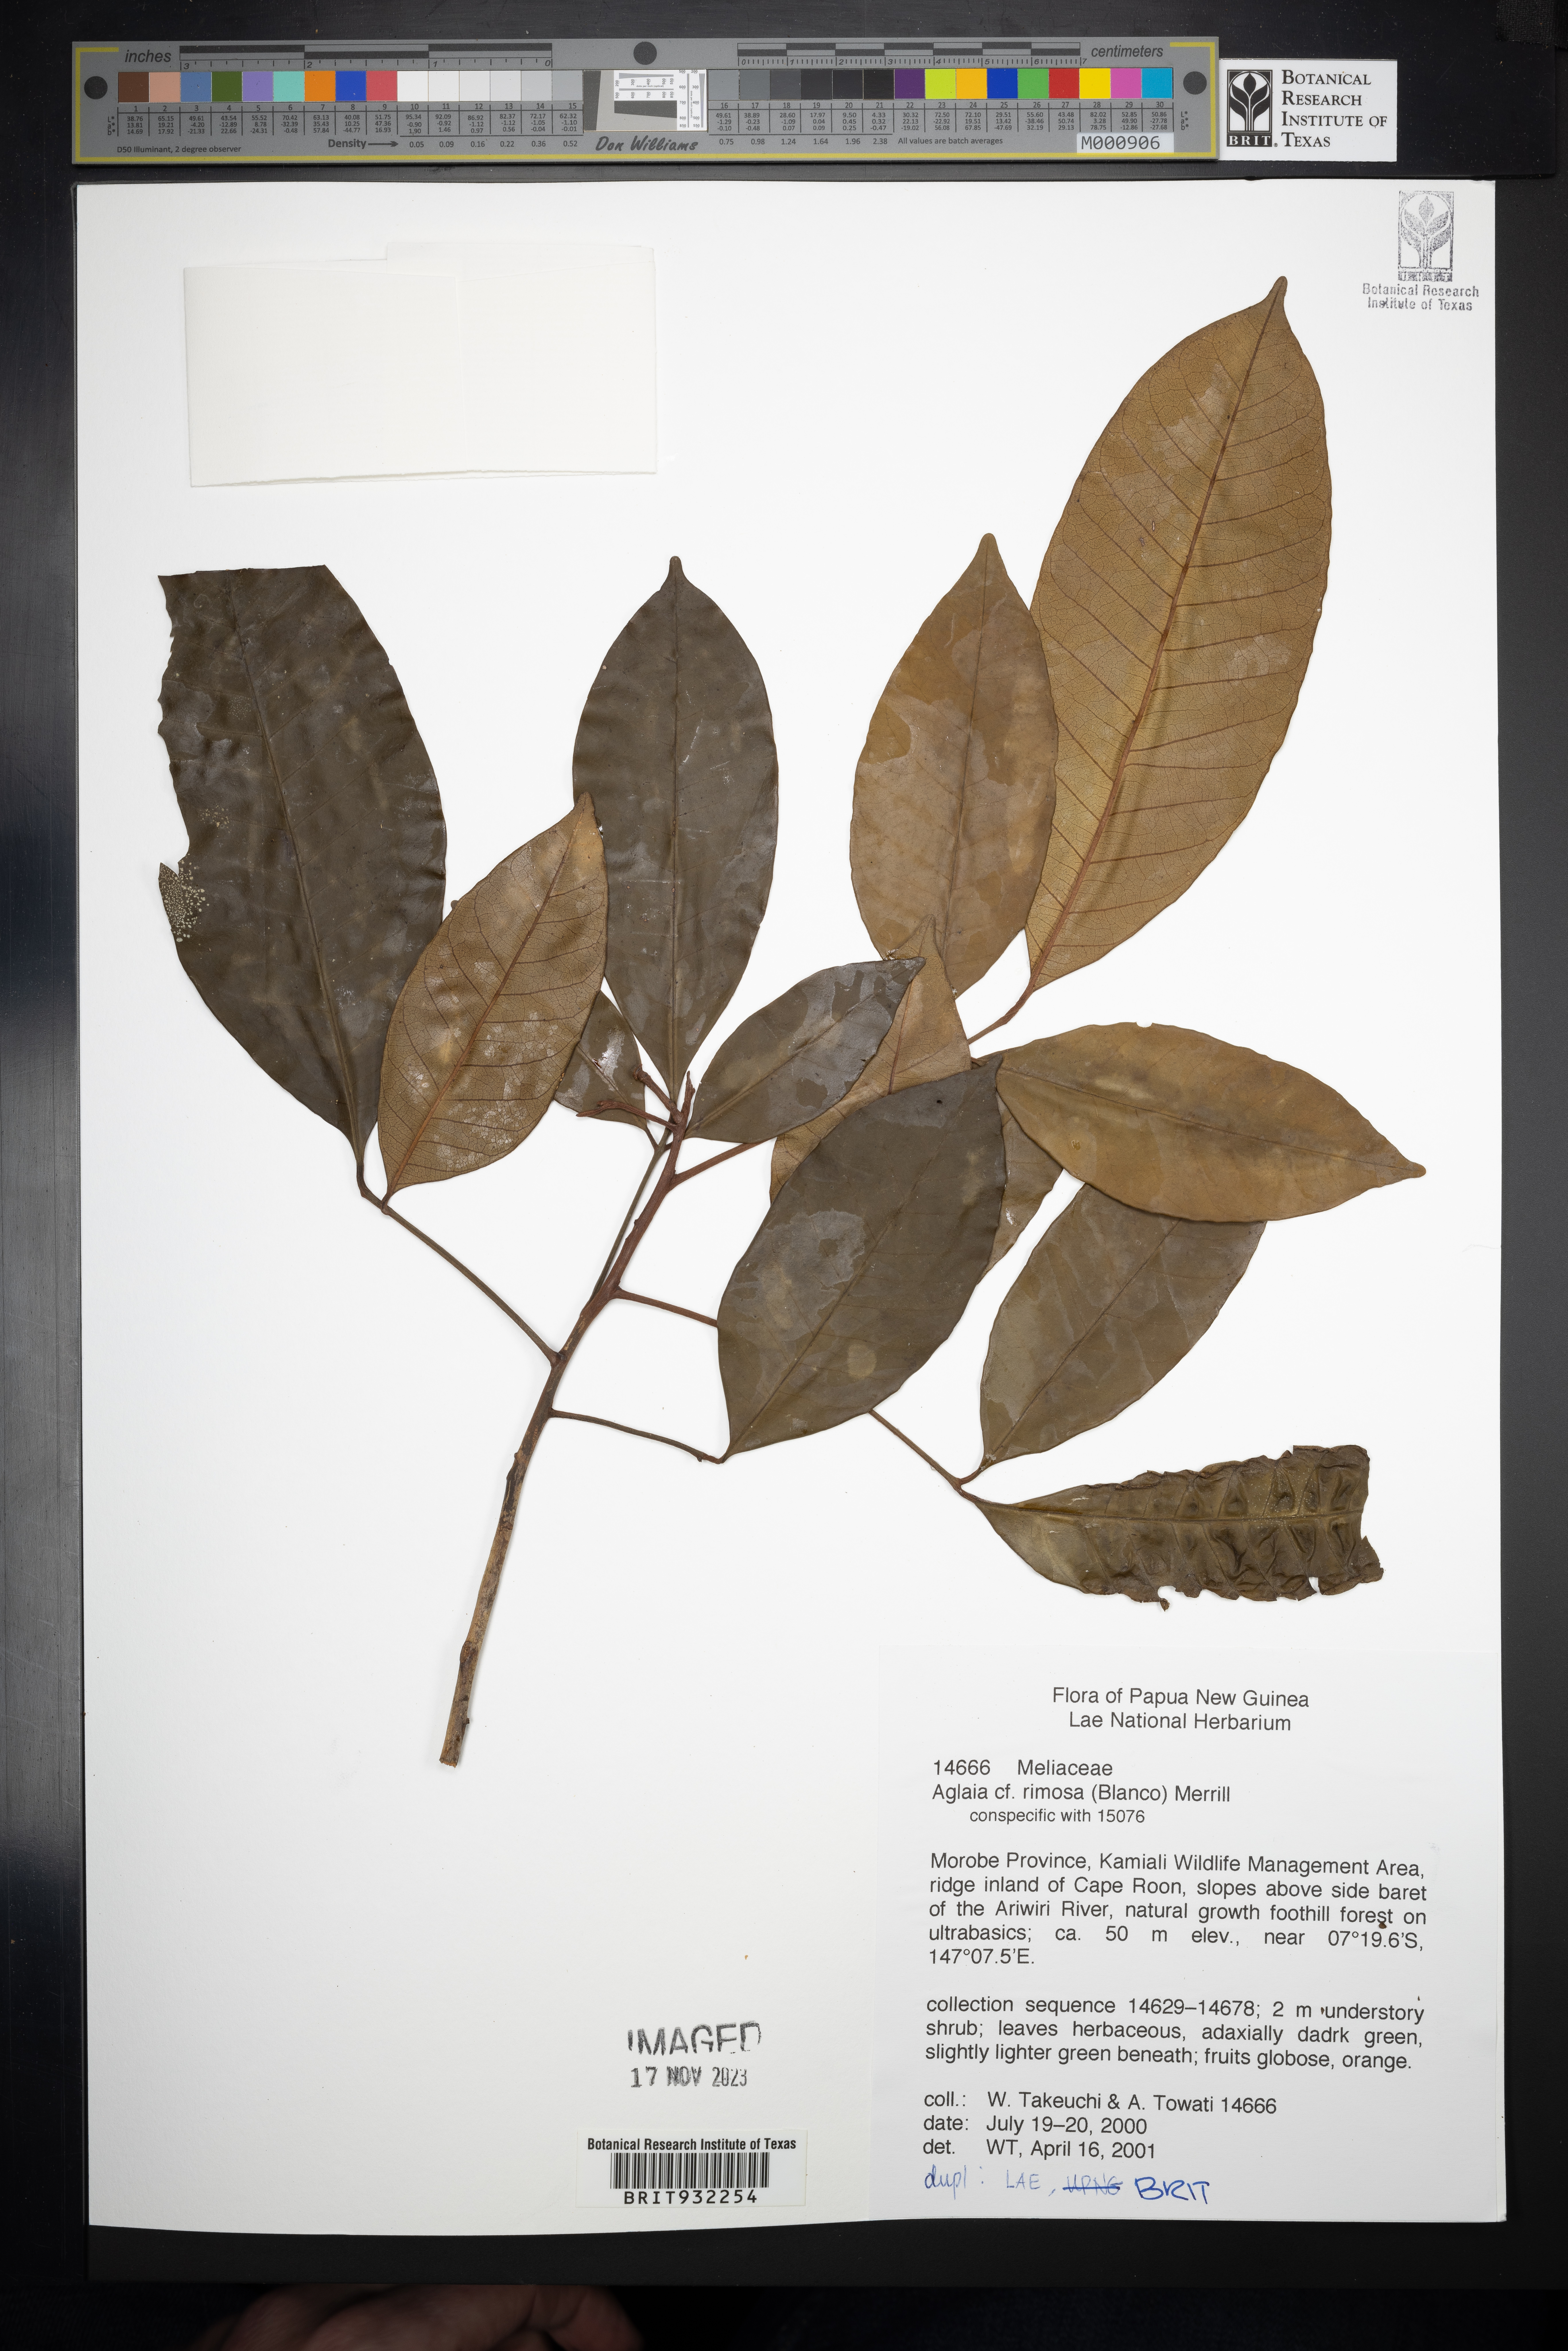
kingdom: Plantae
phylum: Tracheophyta
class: Magnoliopsida
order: Sapindales
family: Meliaceae
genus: Aglaia
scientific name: Aglaia
